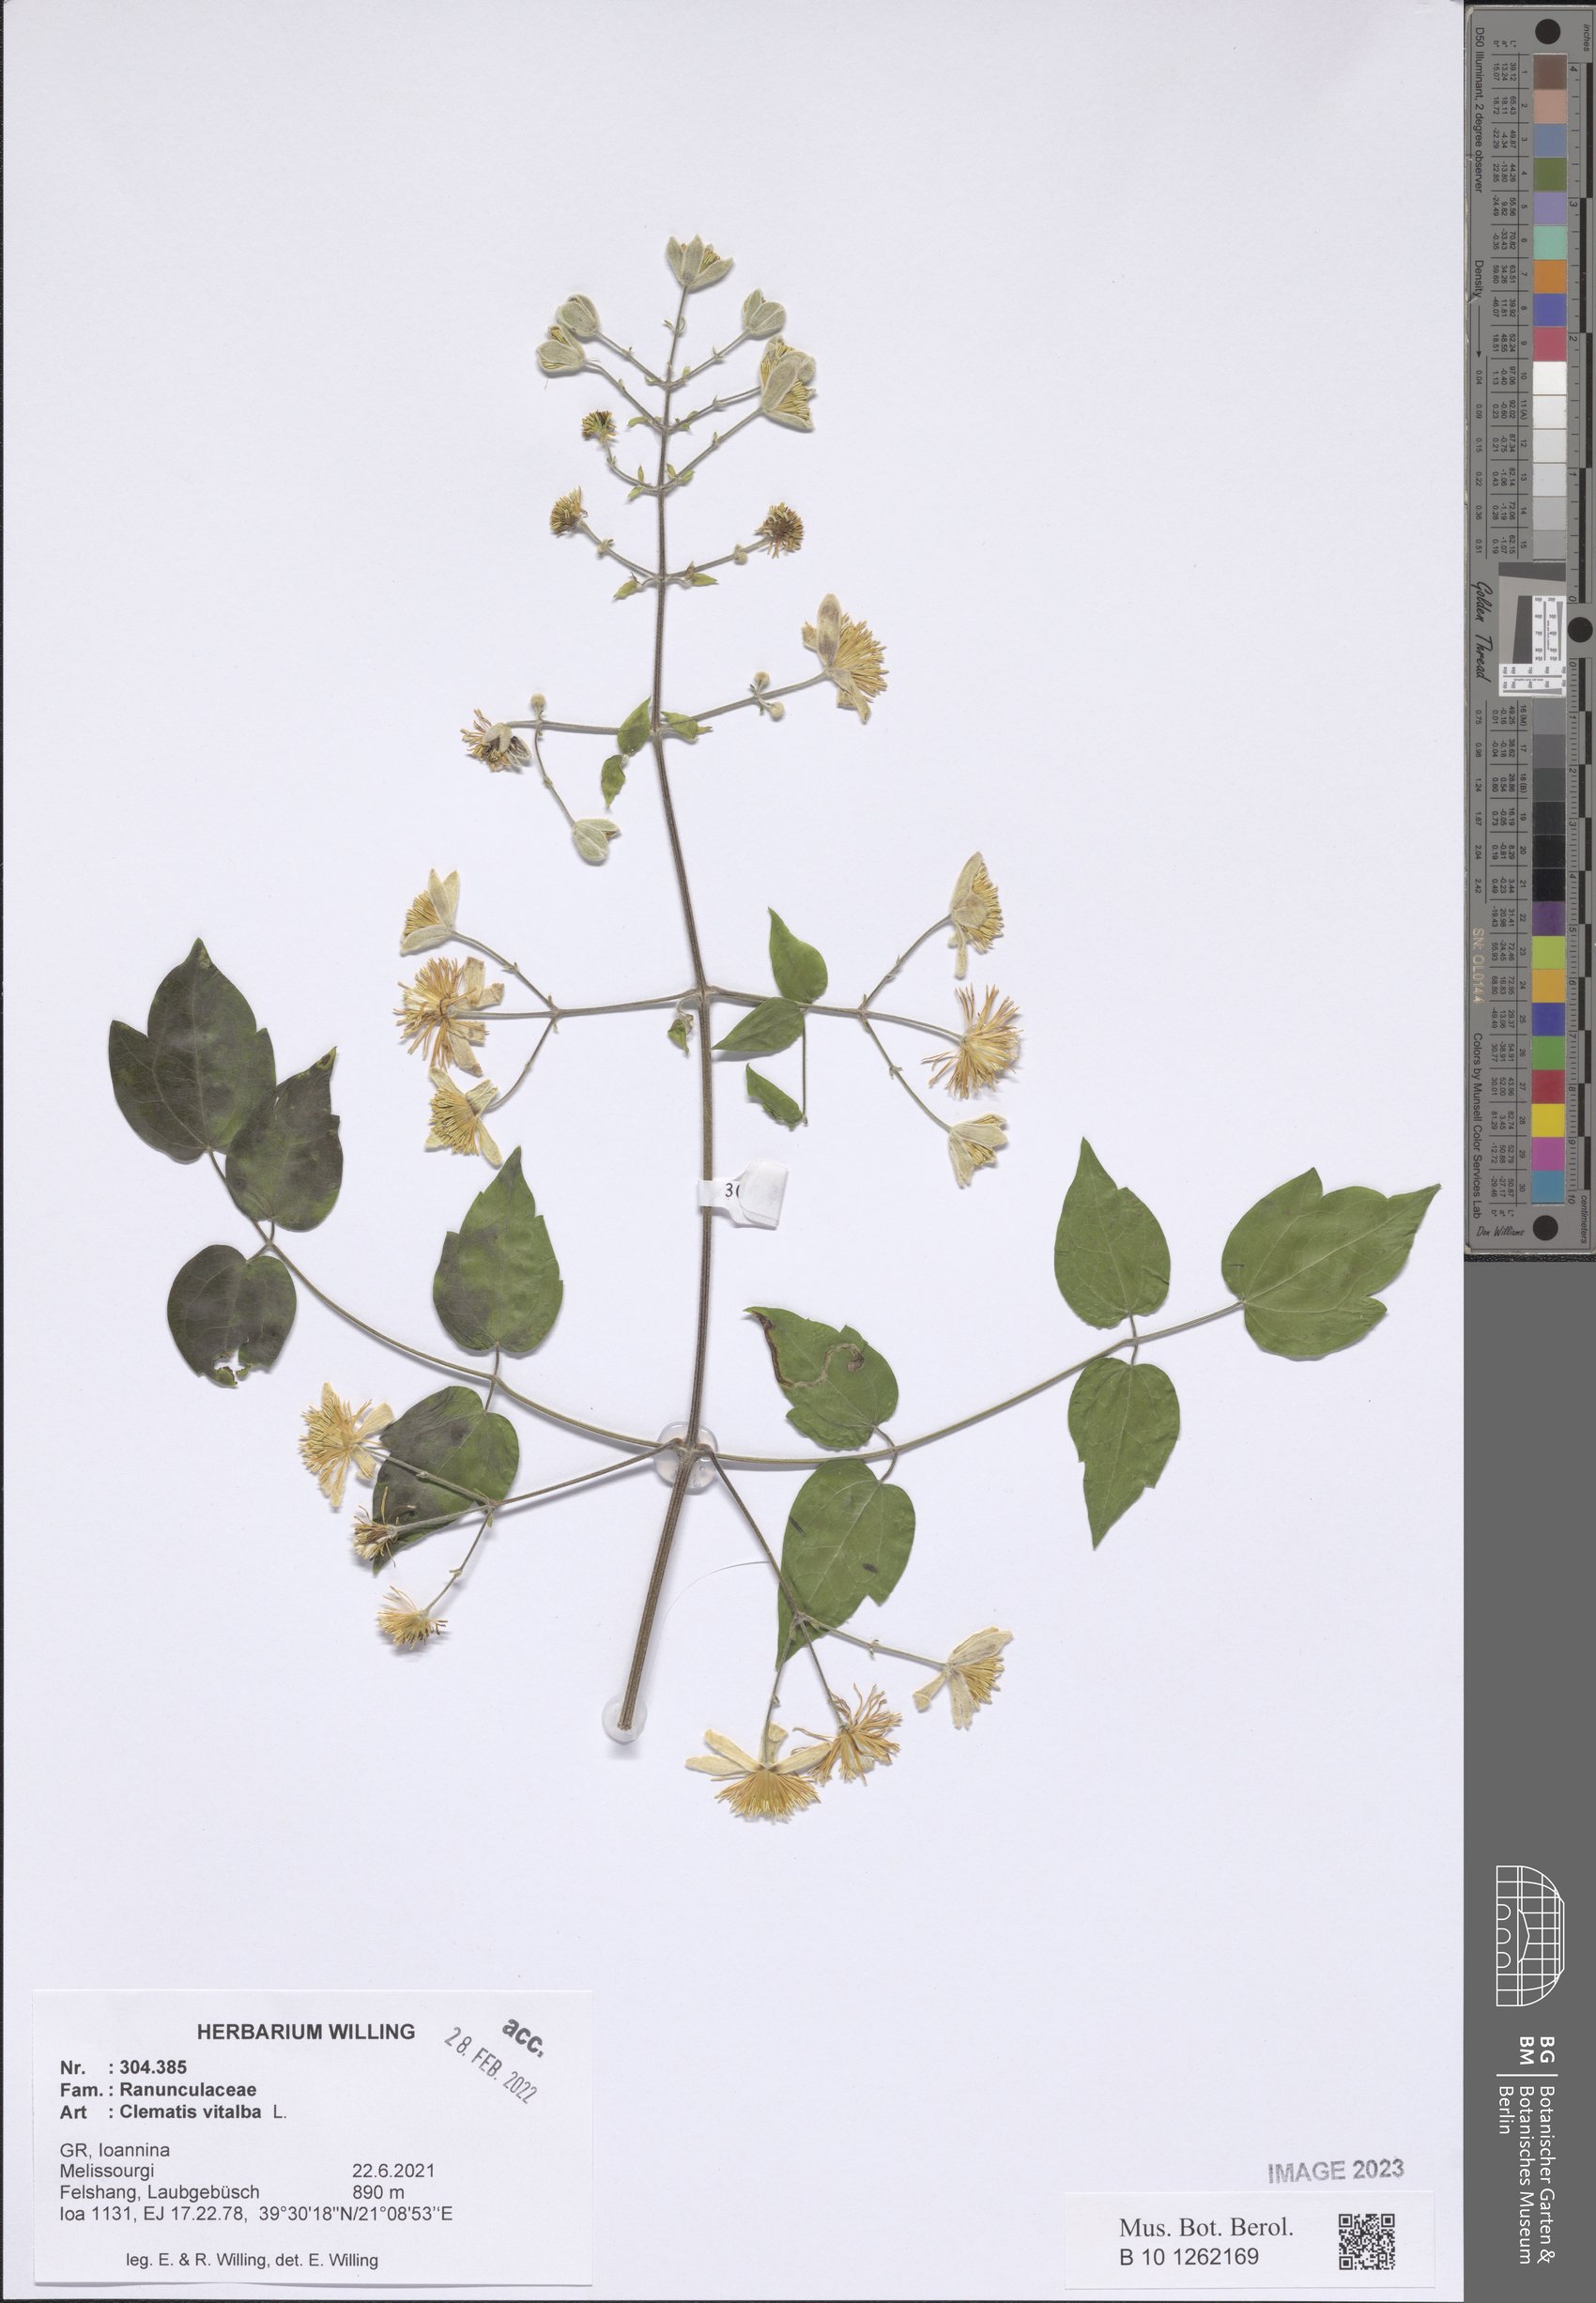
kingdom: Plantae
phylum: Tracheophyta
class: Magnoliopsida
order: Ranunculales
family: Ranunculaceae
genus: Clematis
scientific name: Clematis vitalba
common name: Evergreen clematis
